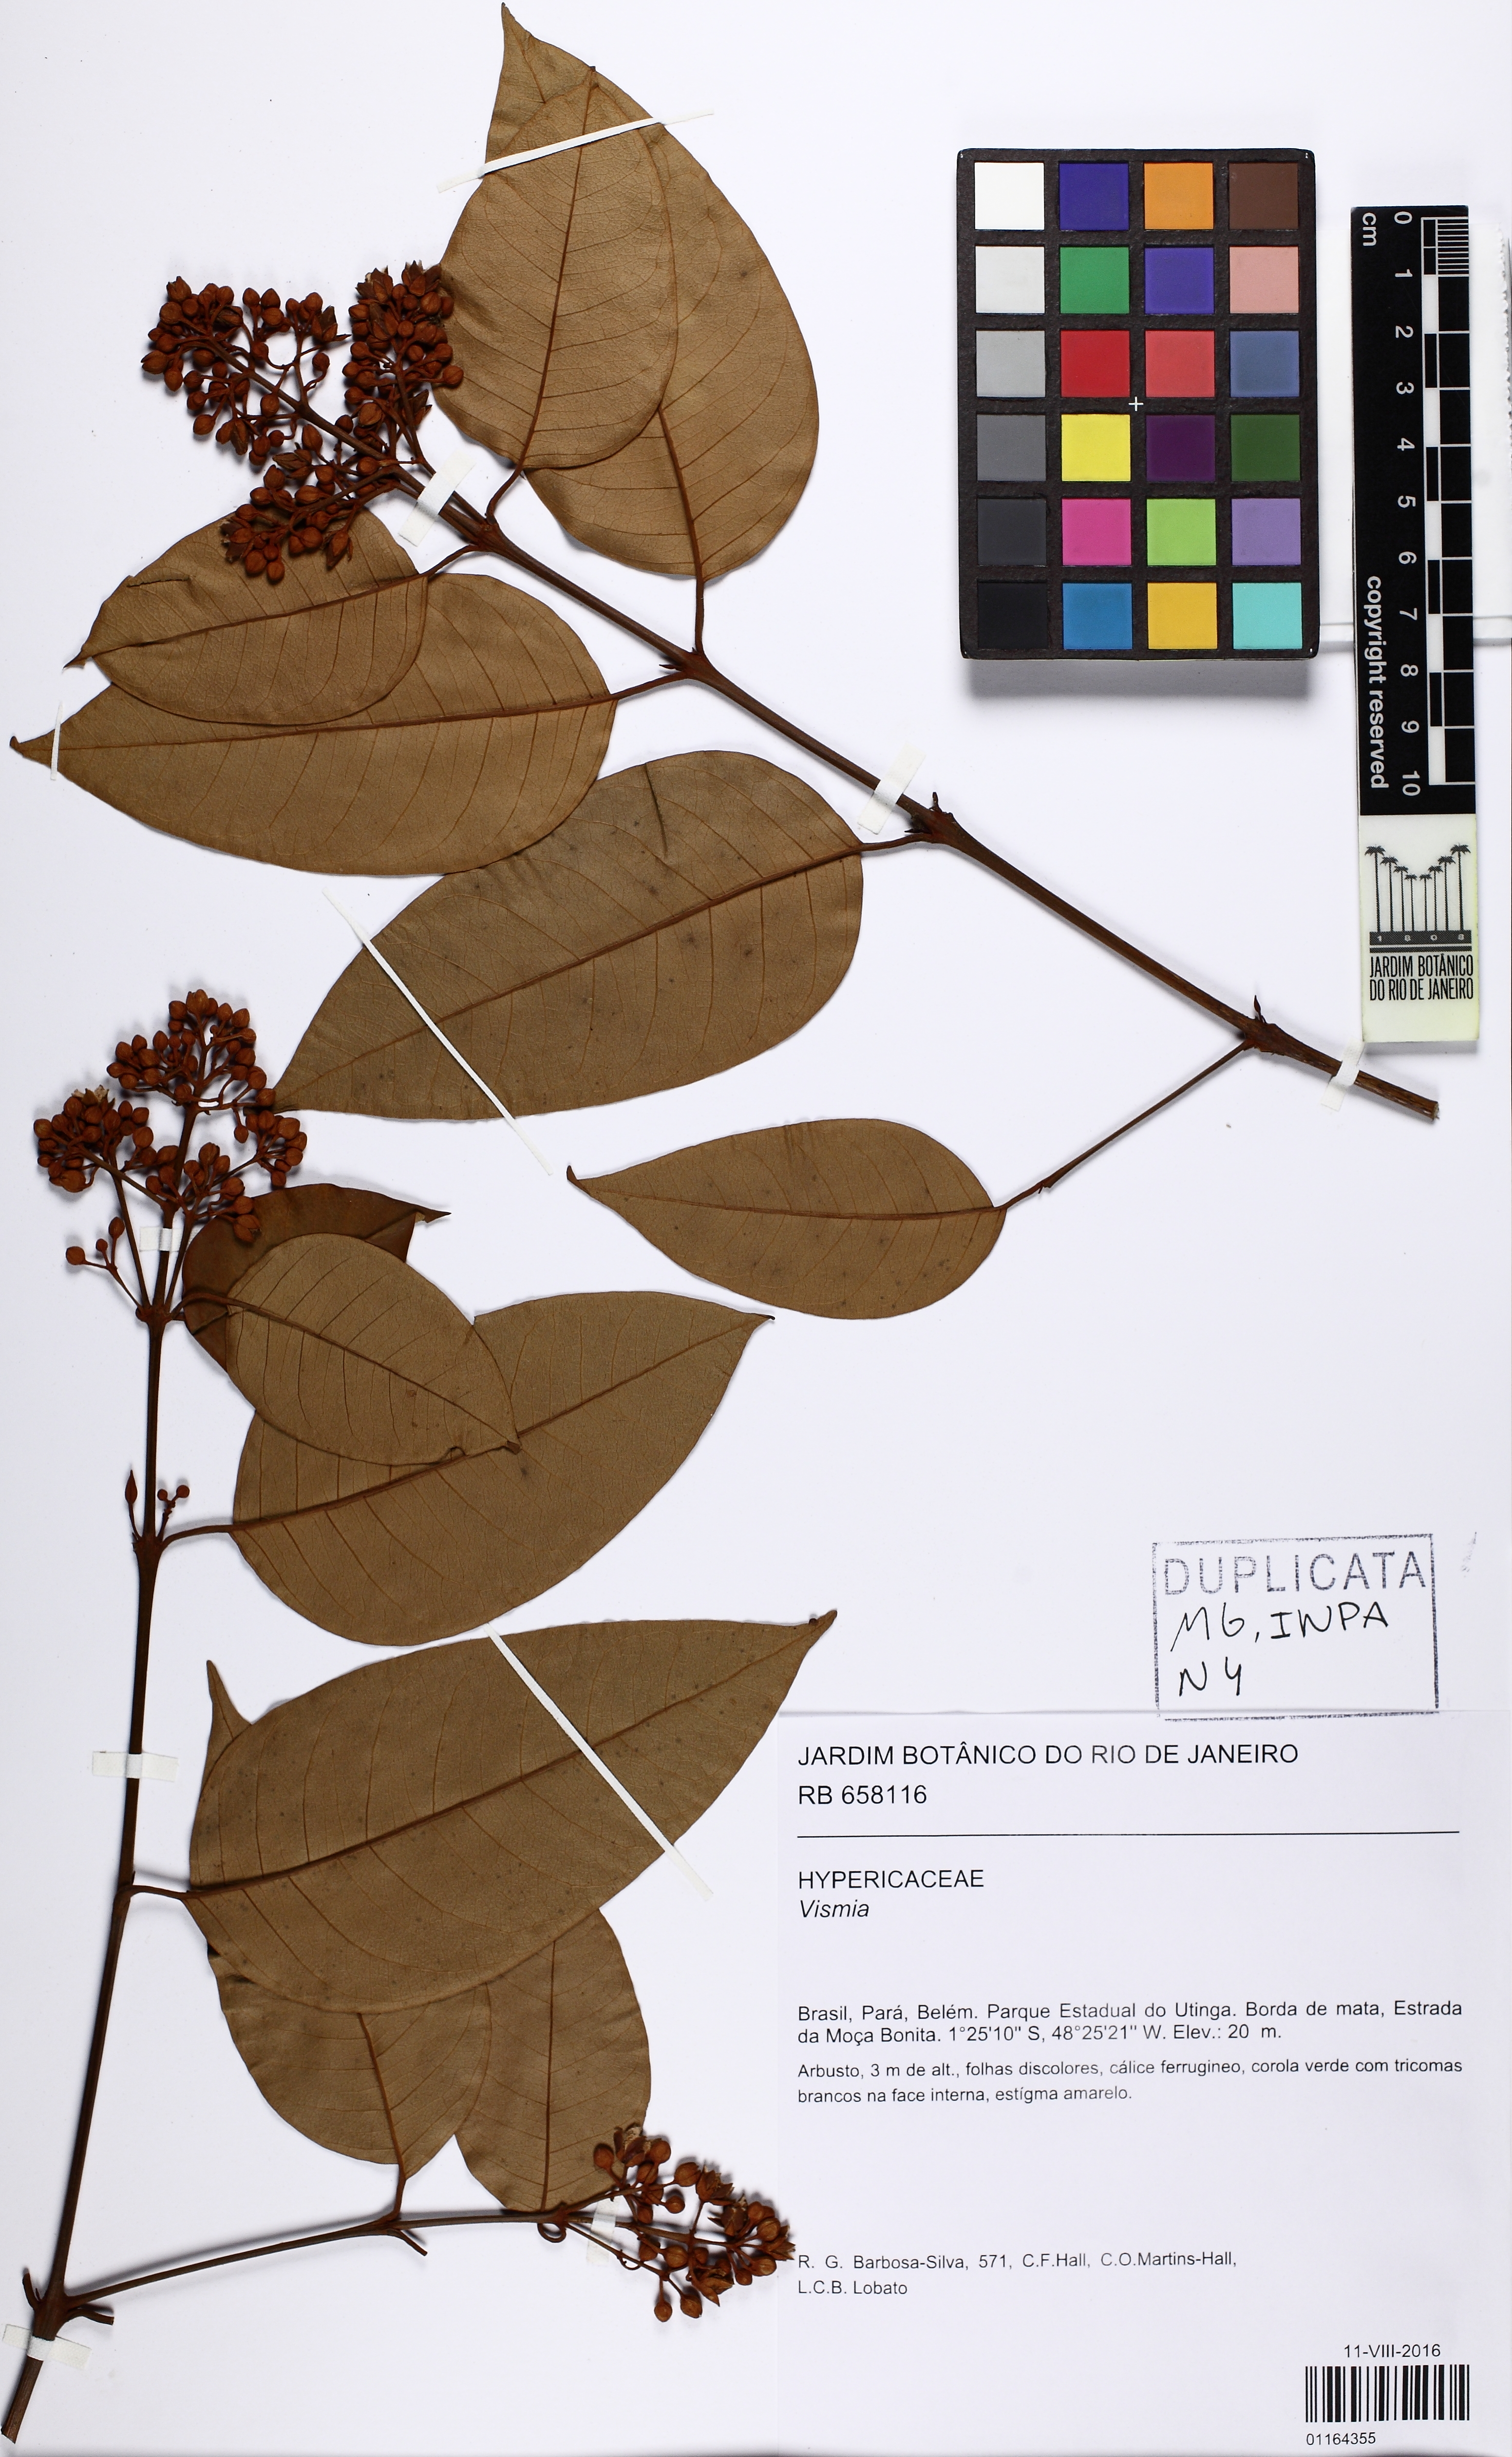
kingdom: Plantae
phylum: Tracheophyta
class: Magnoliopsida
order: Malpighiales
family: Hypericaceae
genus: Vismia
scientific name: Vismia guianensis
